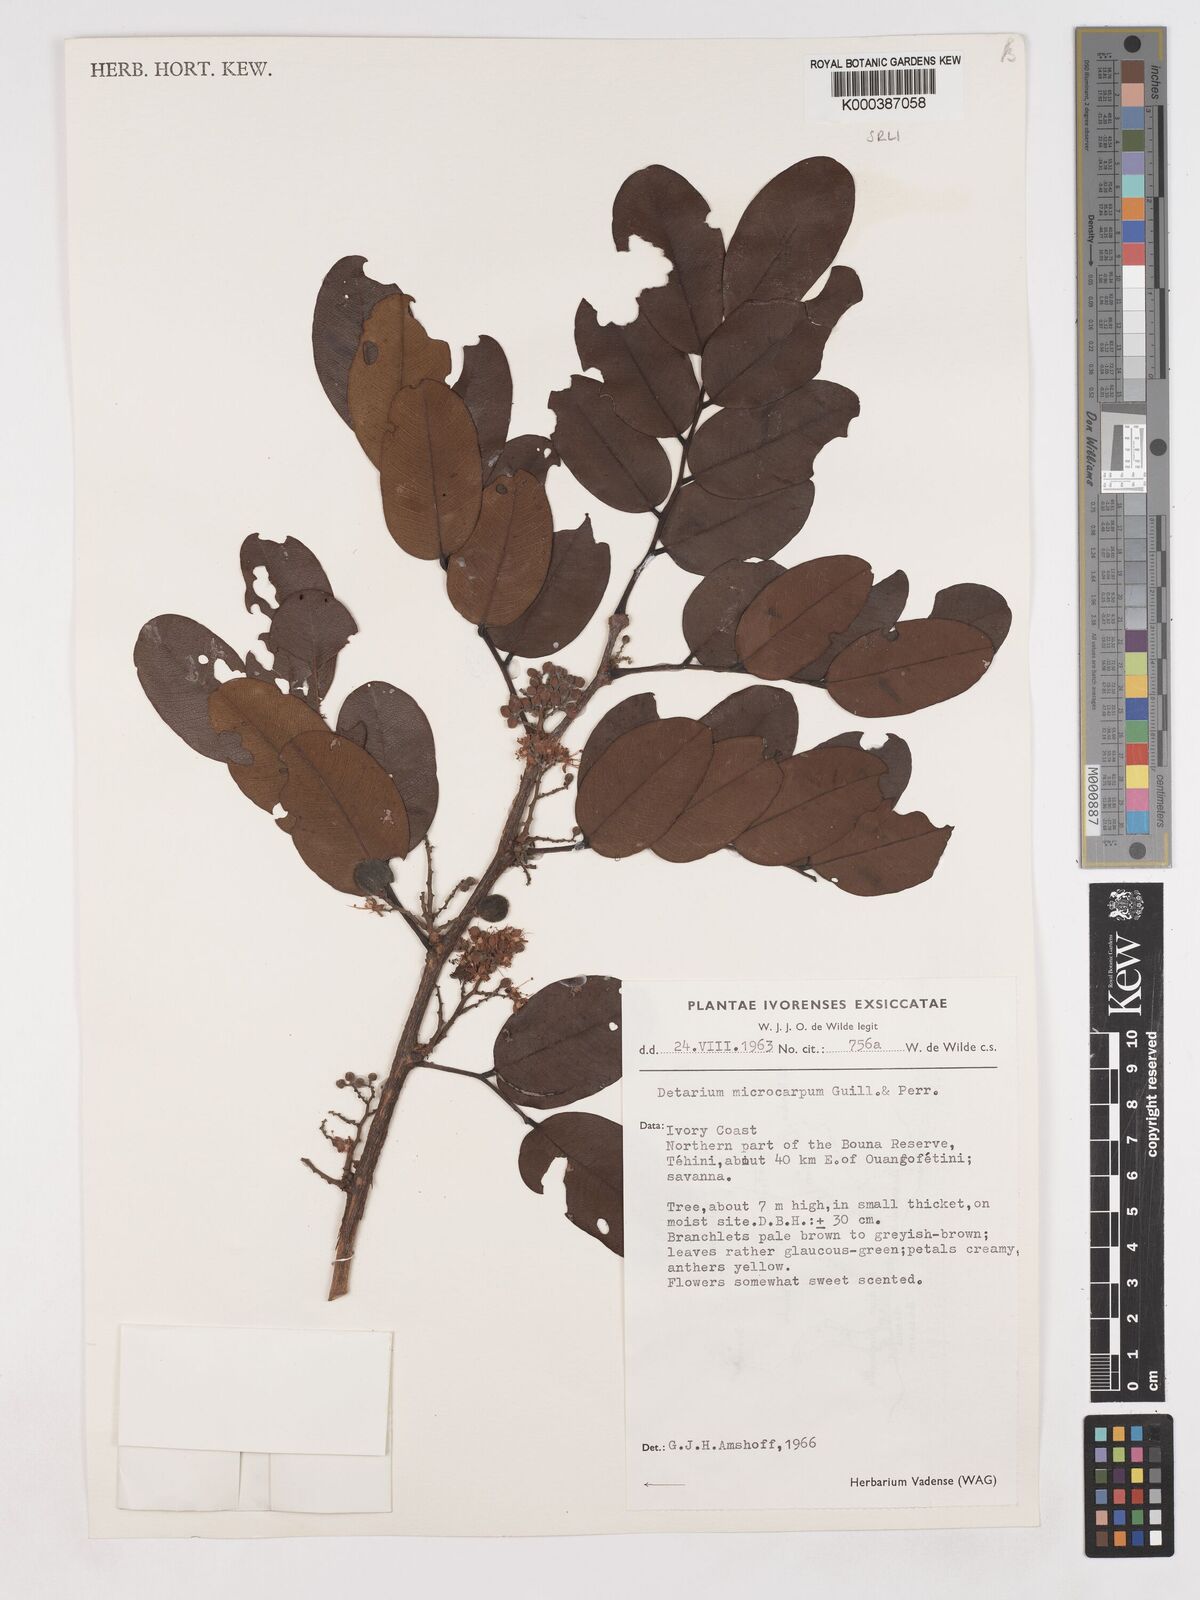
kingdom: Plantae
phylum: Tracheophyta
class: Magnoliopsida
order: Fabales
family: Fabaceae
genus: Detarium
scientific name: Detarium microcarpum
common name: Sweet dattock
